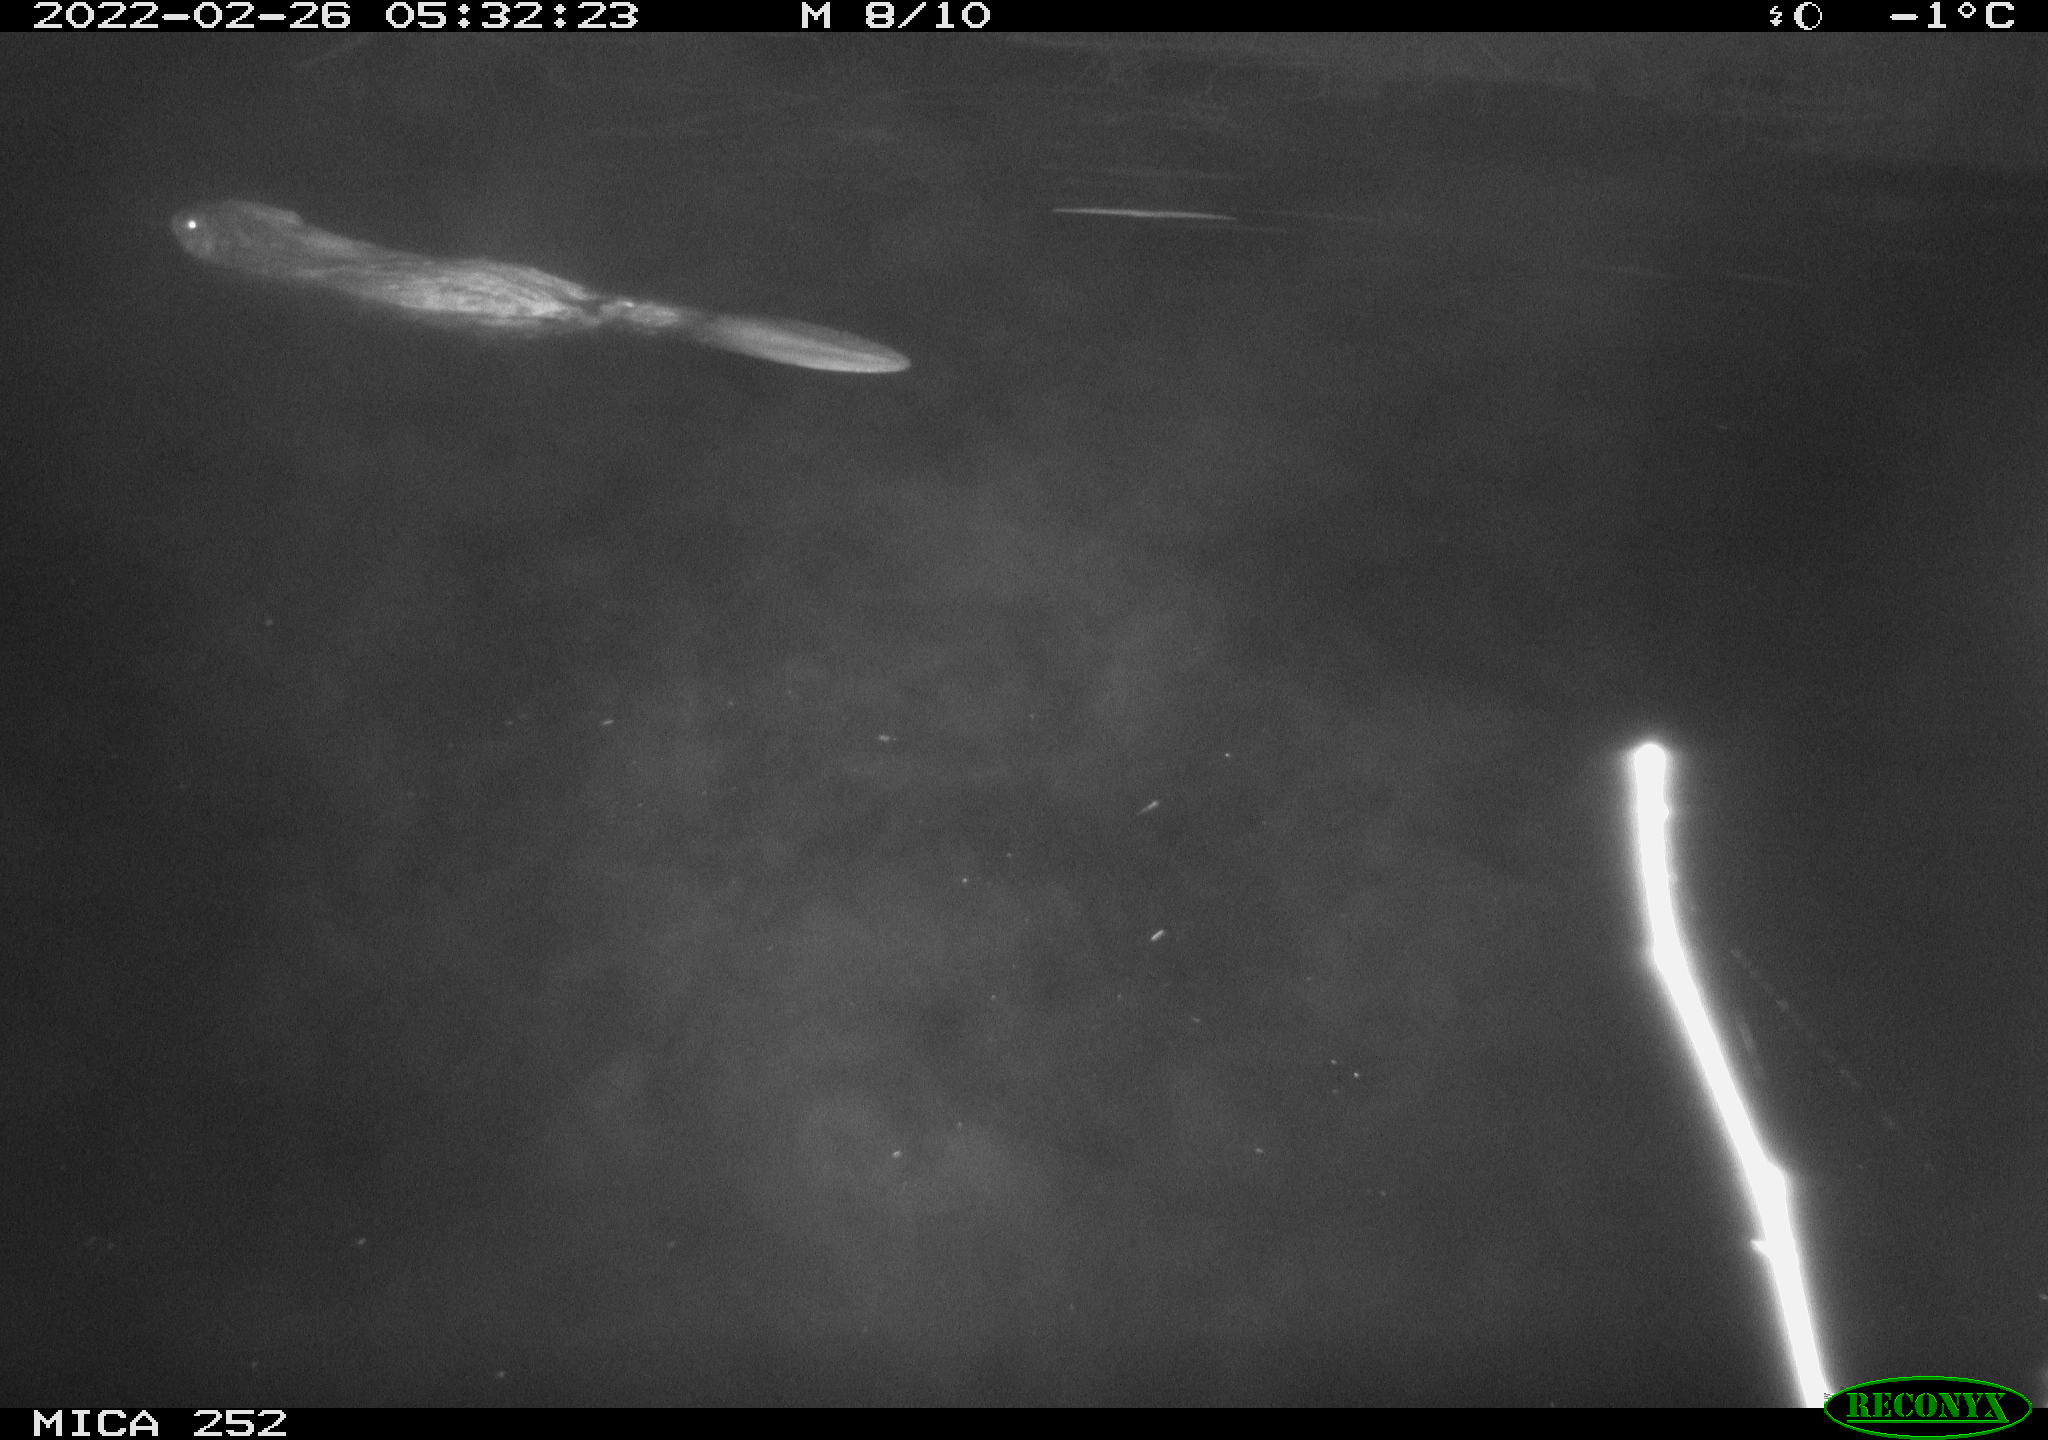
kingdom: Animalia
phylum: Chordata
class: Mammalia
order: Rodentia
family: Castoridae
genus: Castor
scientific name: Castor fiber
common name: Eurasian beaver
